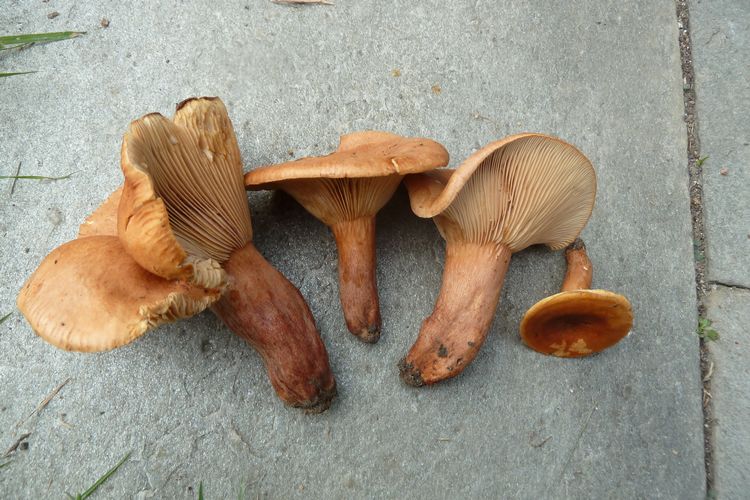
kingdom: Fungi
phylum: Basidiomycota
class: Agaricomycetes
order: Russulales
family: Russulaceae
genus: Lactarius
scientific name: Lactarius fulvissimus
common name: ræve-mælkehat
